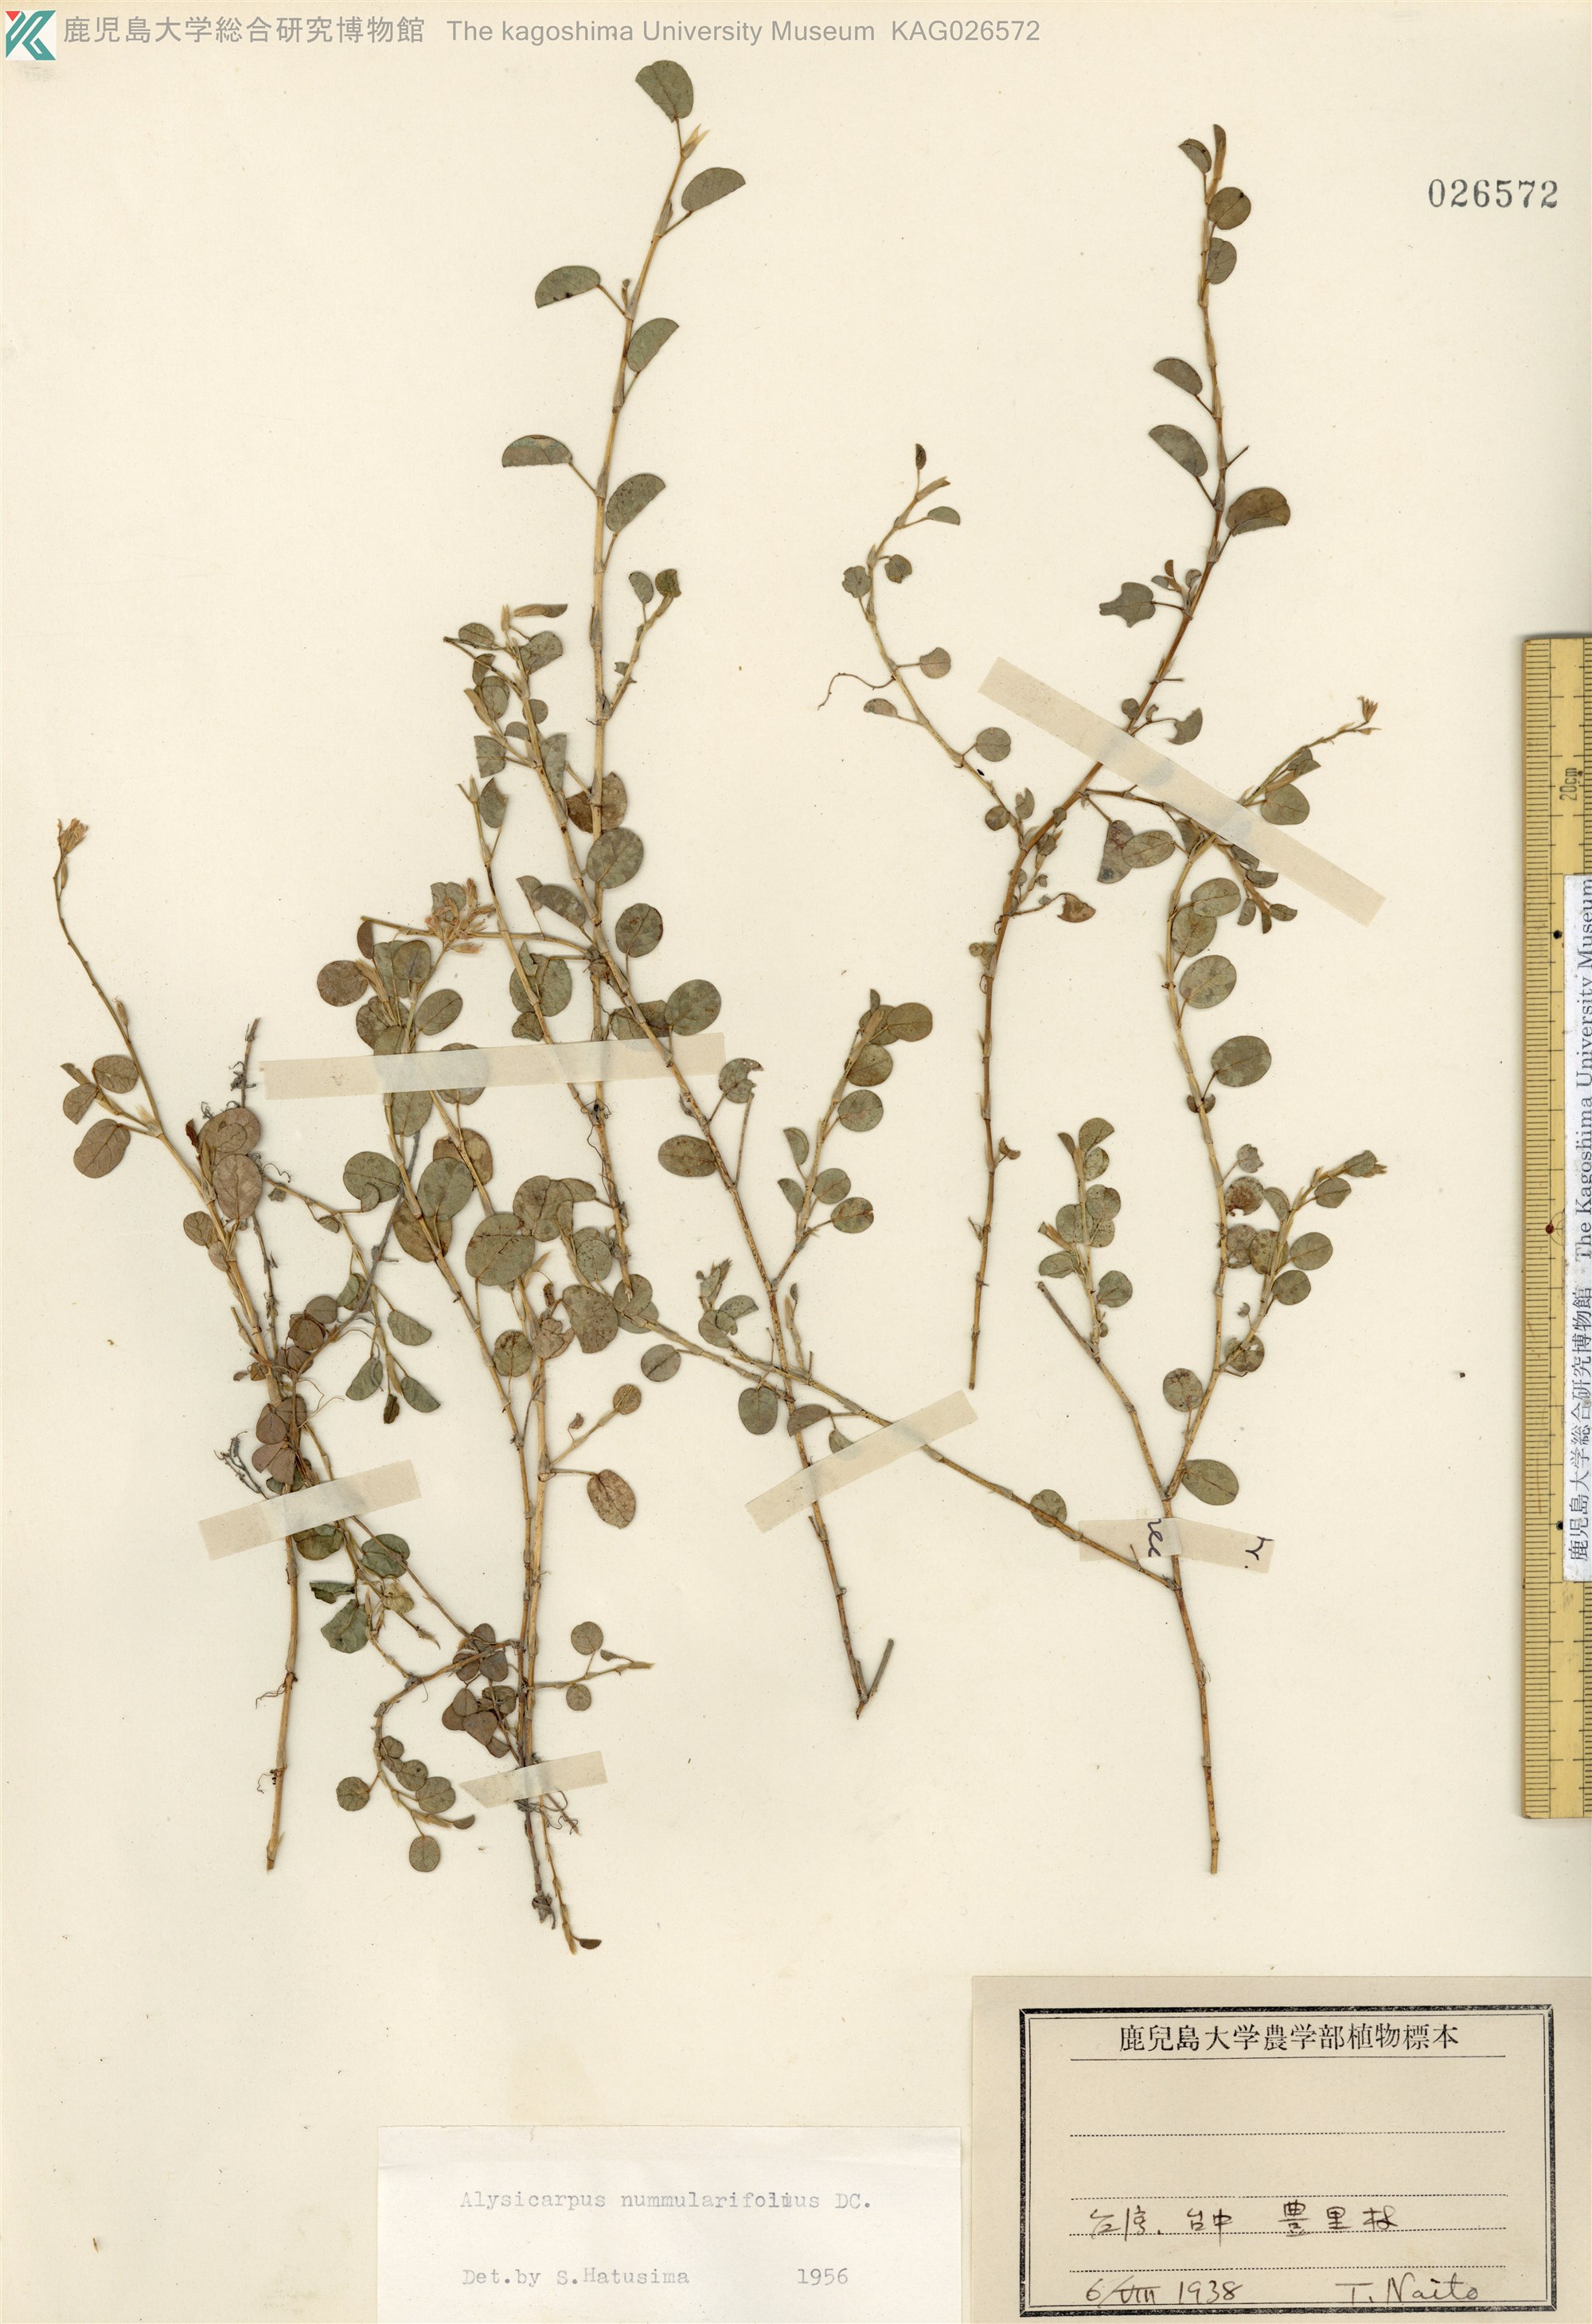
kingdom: Plantae
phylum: Tracheophyta
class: Magnoliopsida
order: Fabales
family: Fabaceae
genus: Alysicarpus
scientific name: Alysicarpus vaginalis
